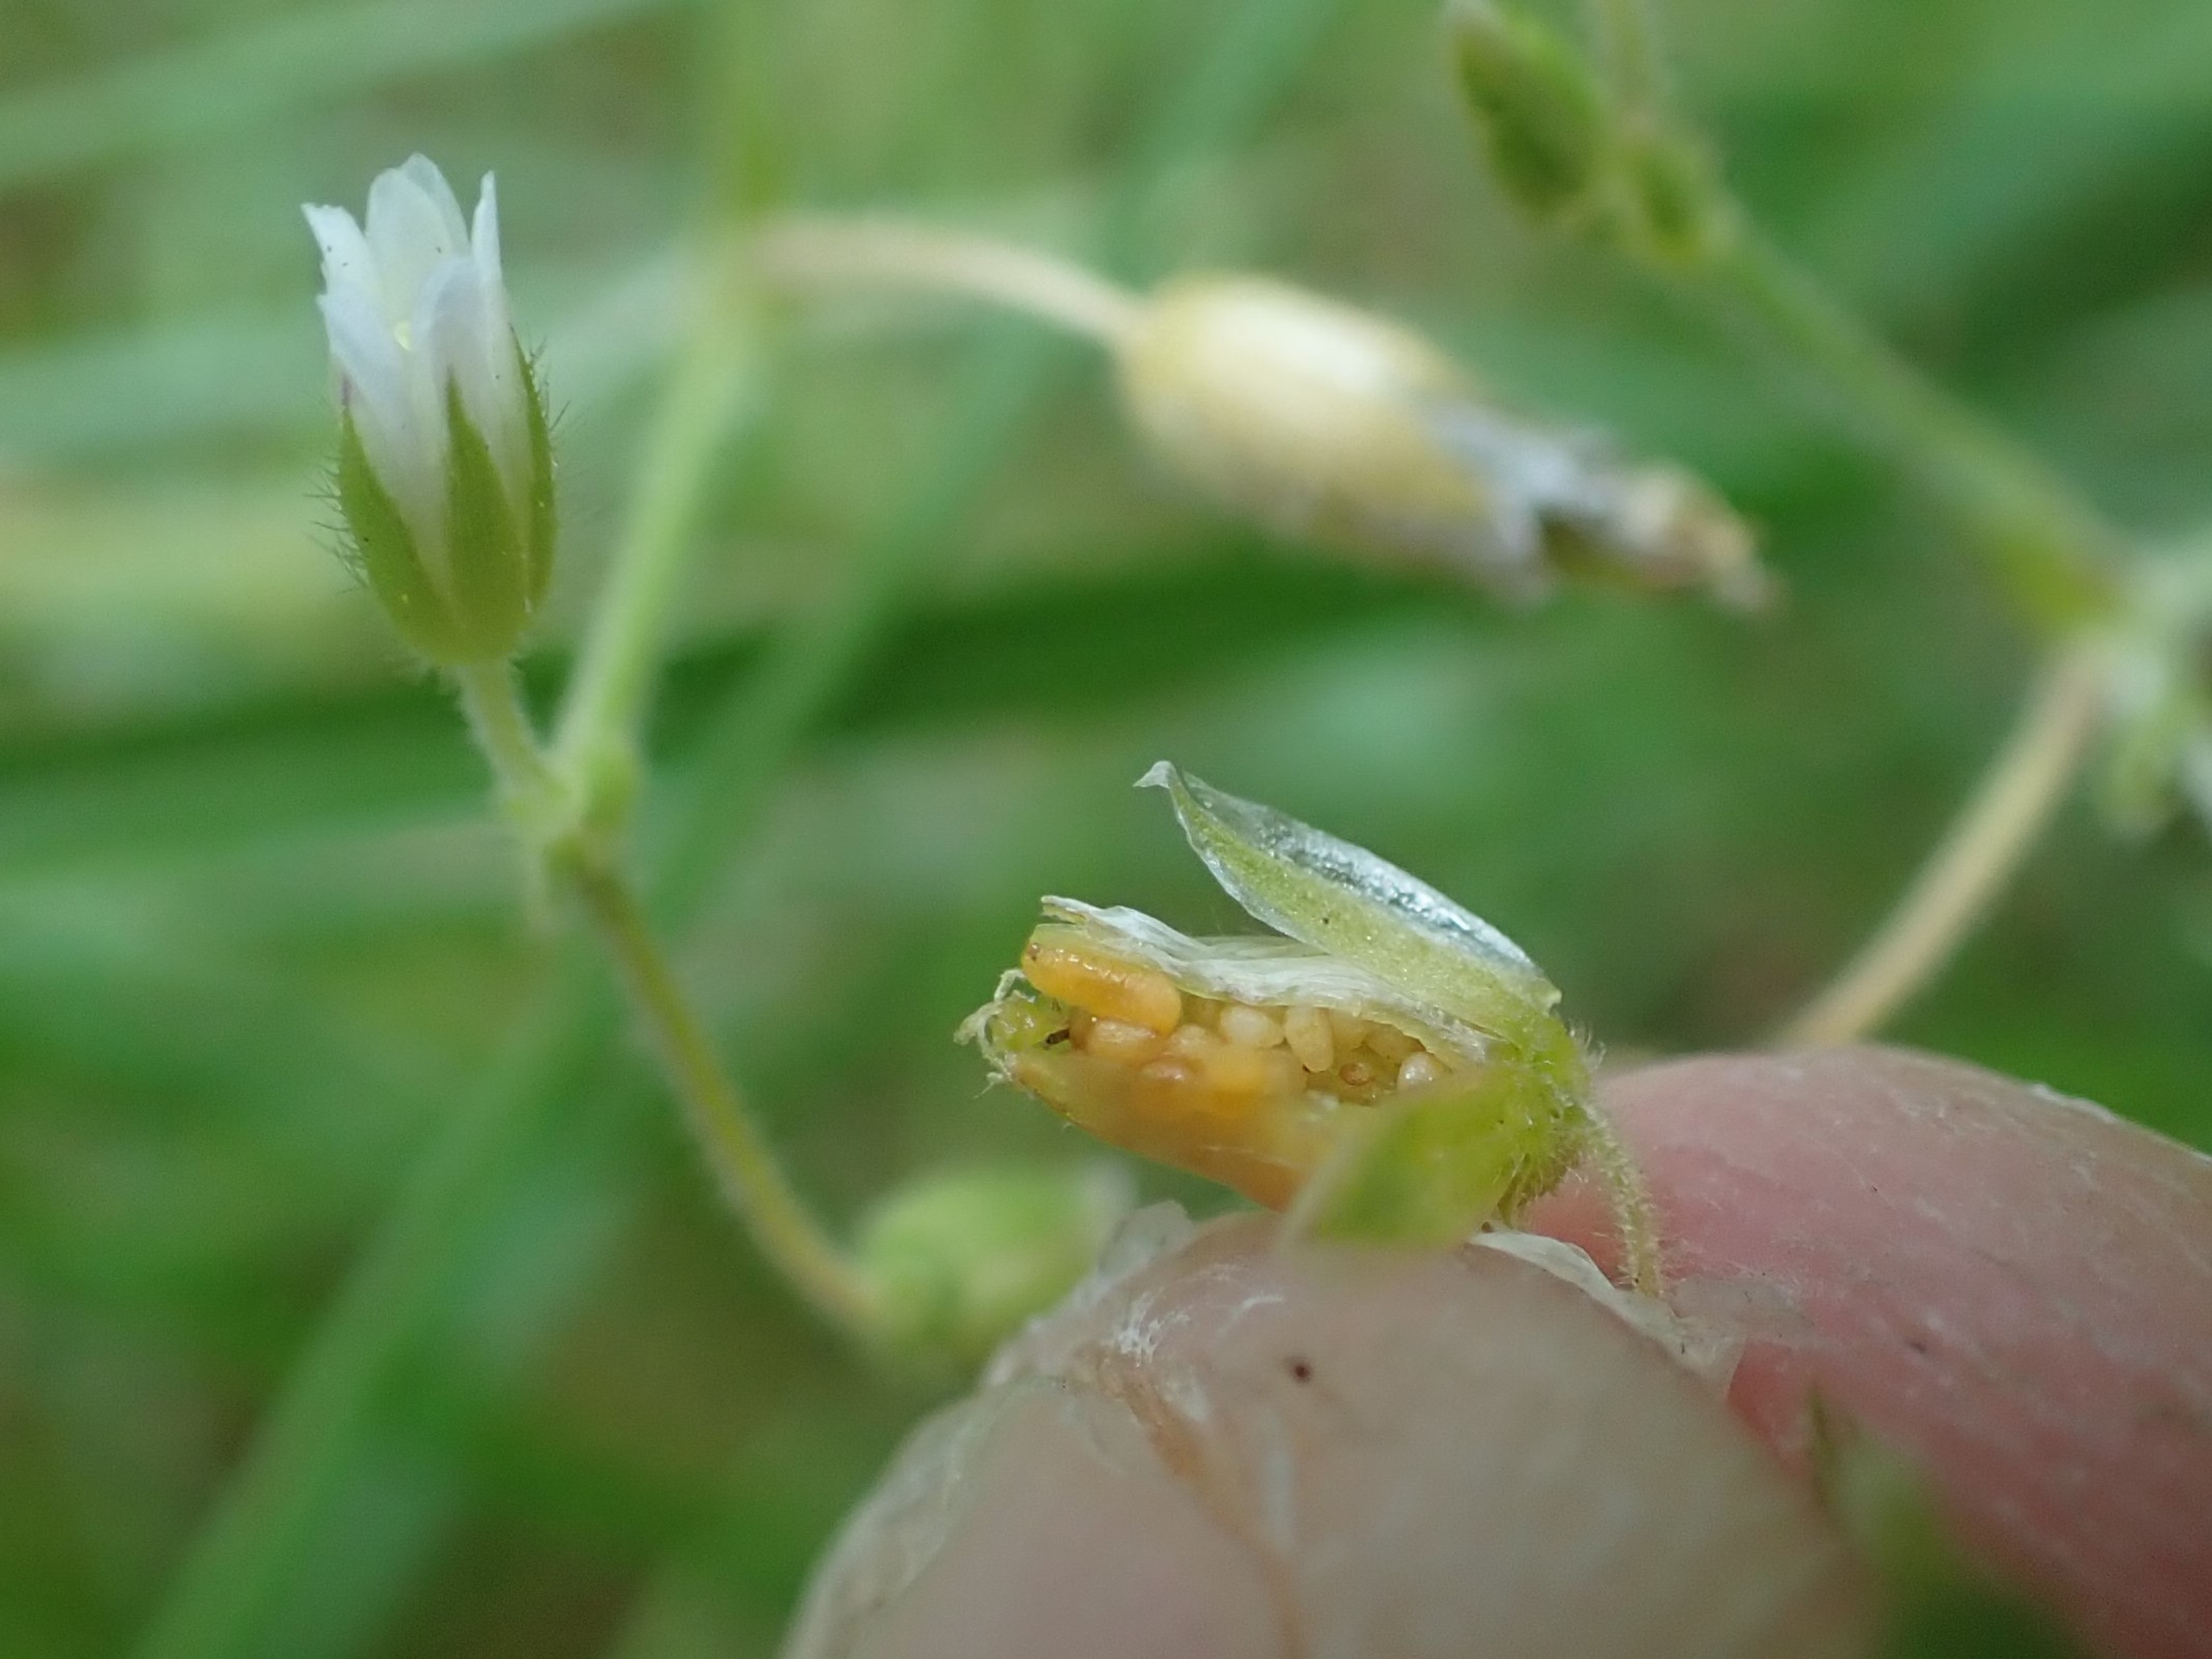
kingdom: Animalia
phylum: Arthropoda
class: Insecta
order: Diptera
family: Cecidomyiidae
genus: Dasineura
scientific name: Dasineura fructum
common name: Hørsetarmkapselgalmyg
